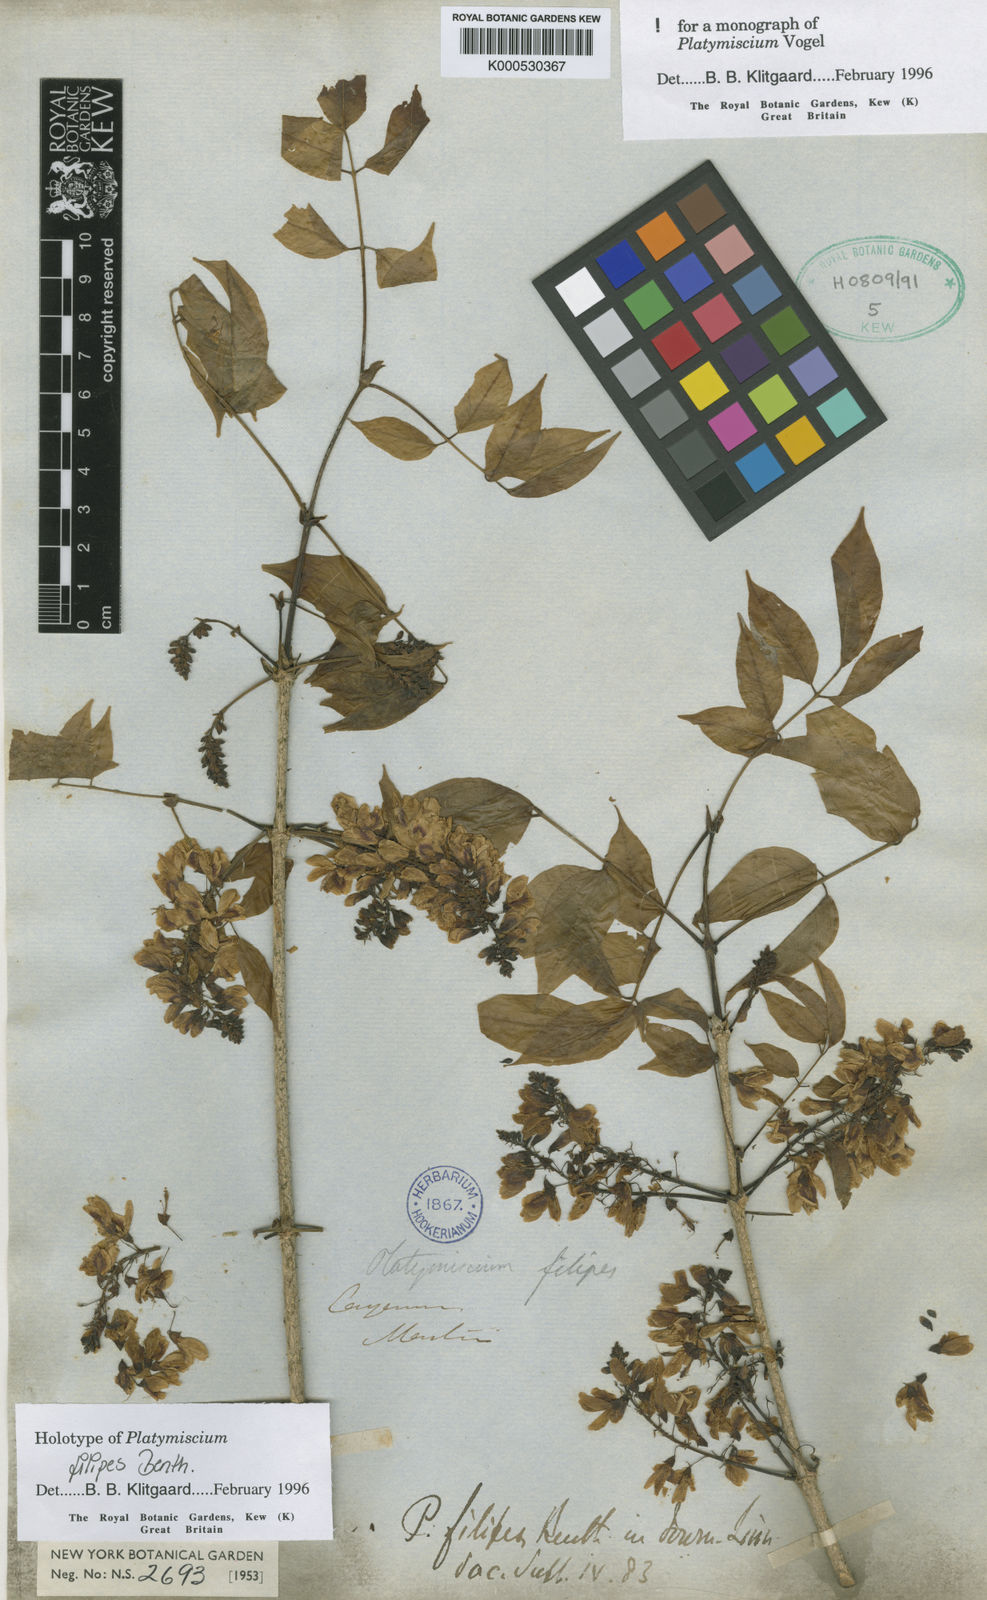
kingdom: Plantae
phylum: Tracheophyta
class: Magnoliopsida
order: Fabales
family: Fabaceae
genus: Platymiscium
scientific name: Platymiscium filipes
